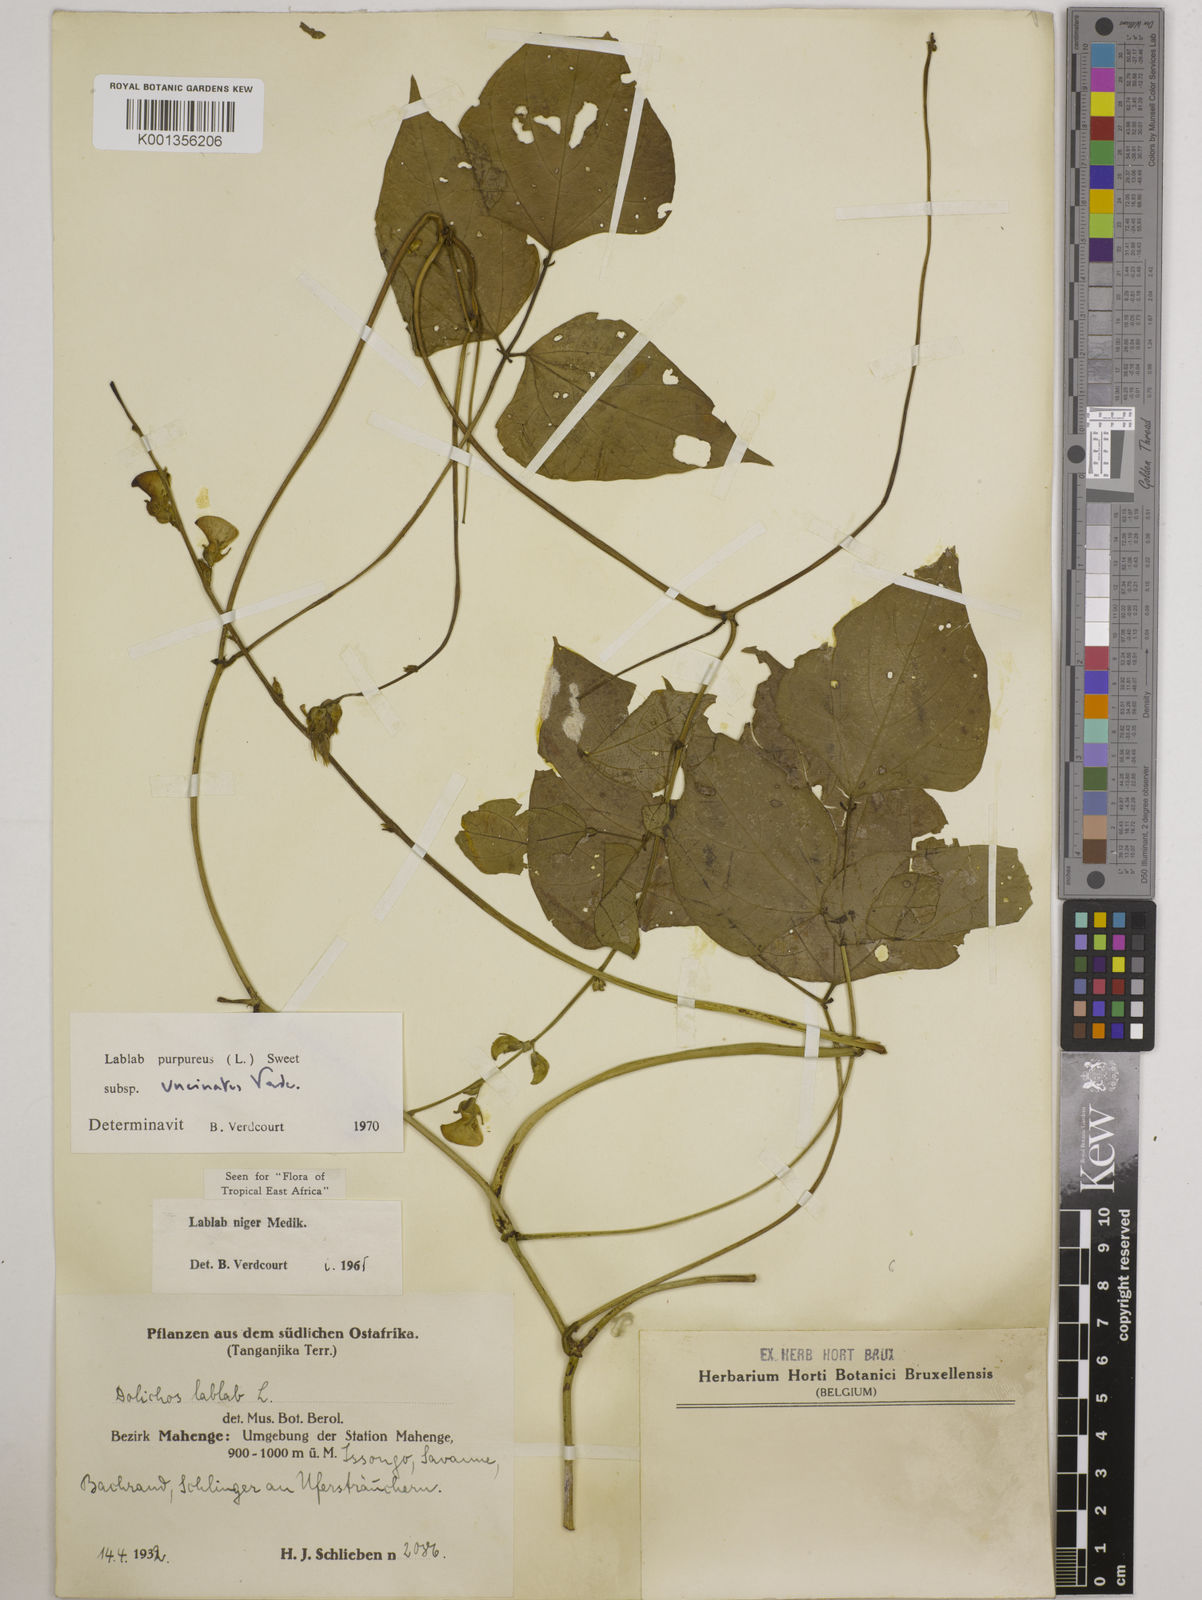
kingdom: Plantae
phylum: Tracheophyta
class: Magnoliopsida
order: Fabales
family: Fabaceae
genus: Lablab
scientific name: Lablab purpureus
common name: Lablab-bean
